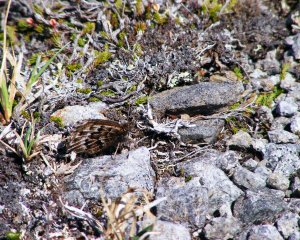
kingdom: Animalia
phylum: Arthropoda
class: Insecta
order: Lepidoptera
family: Nymphalidae
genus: Oeneis
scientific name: Oeneis bore
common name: White-veined Arctic
